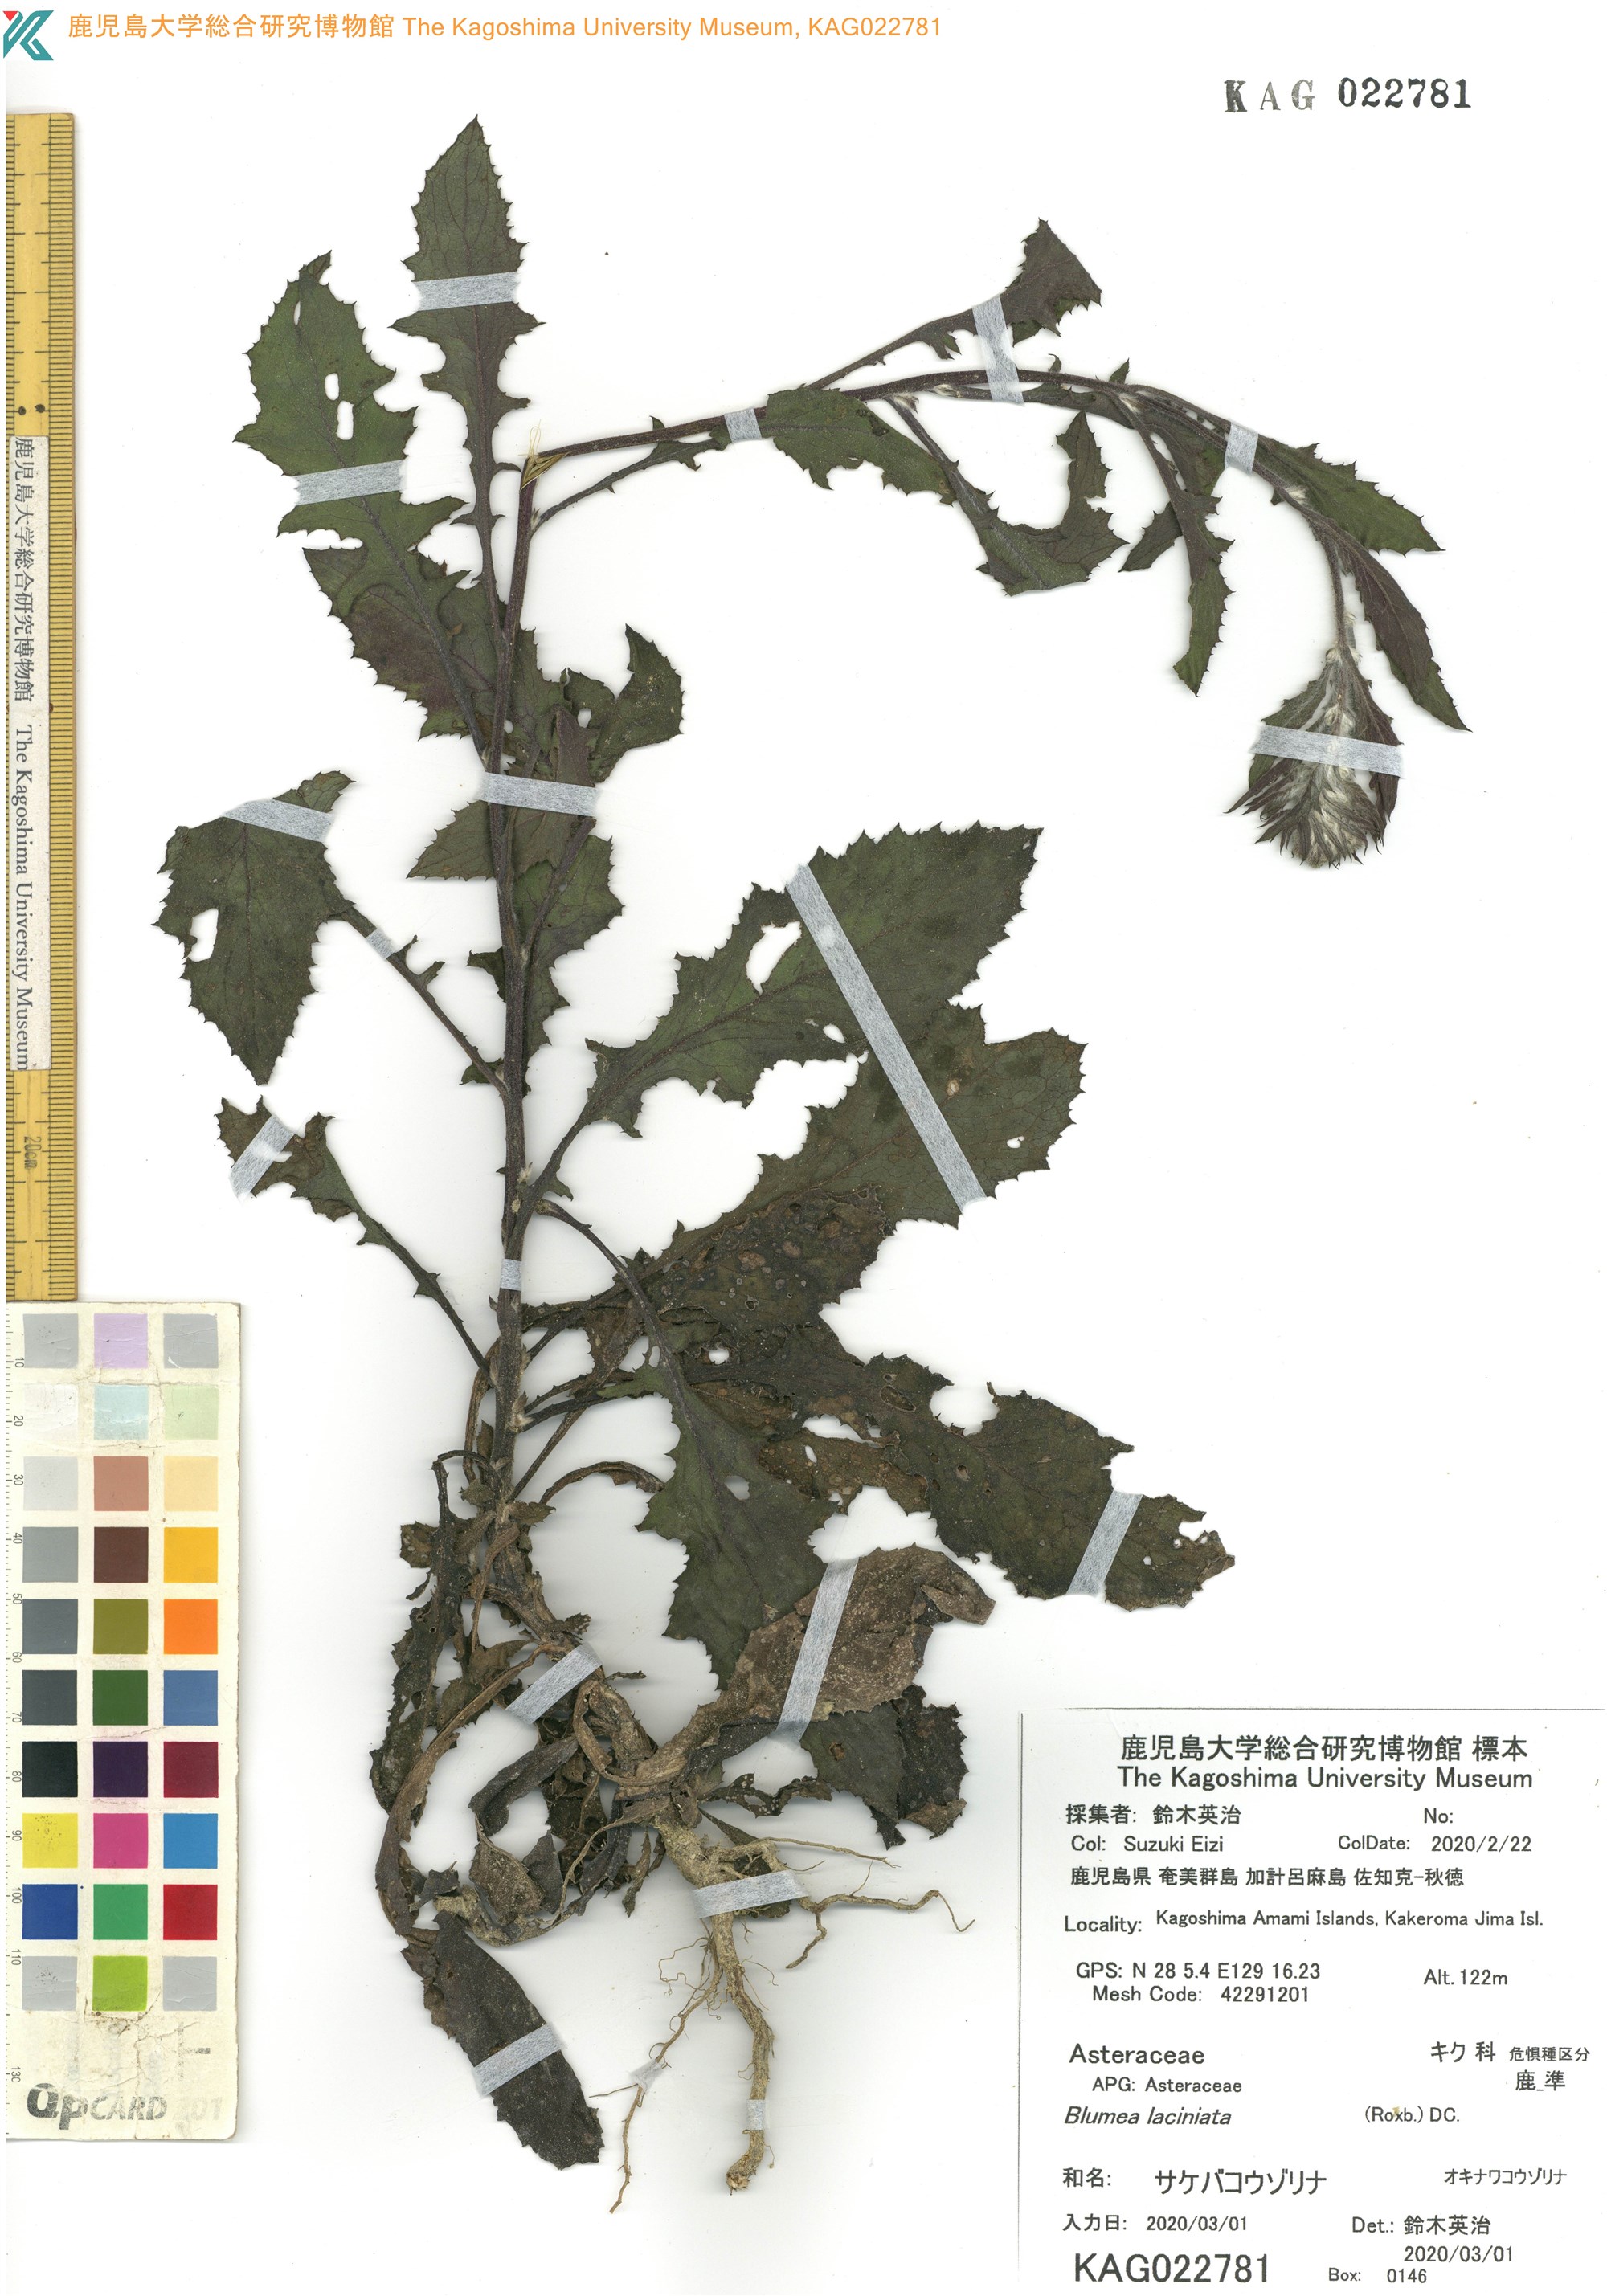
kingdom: Plantae
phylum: Tracheophyta
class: Magnoliopsida
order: Asterales
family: Asteraceae
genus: Blumea
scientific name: Blumea sinuata
